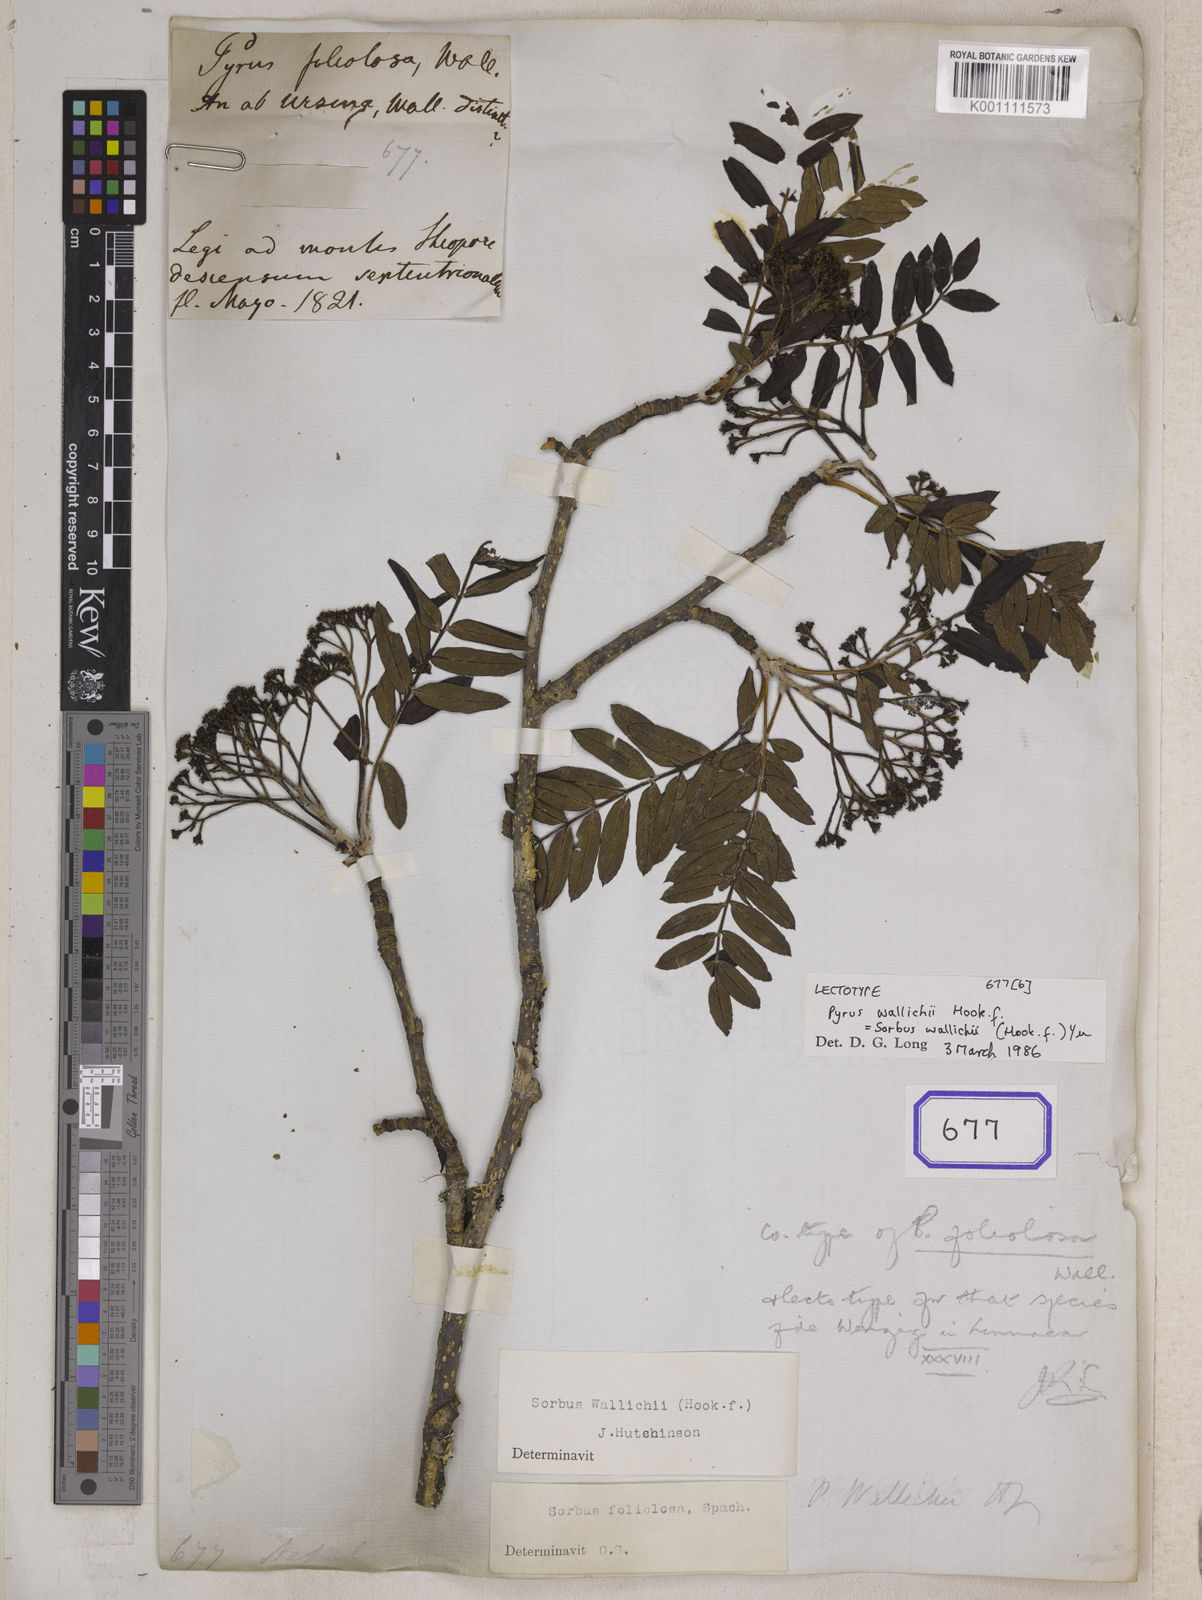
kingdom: Plantae
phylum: Tracheophyta
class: Magnoliopsida
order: Rosales
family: Rosaceae
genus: Sorbus
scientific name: Sorbus foliolosa
